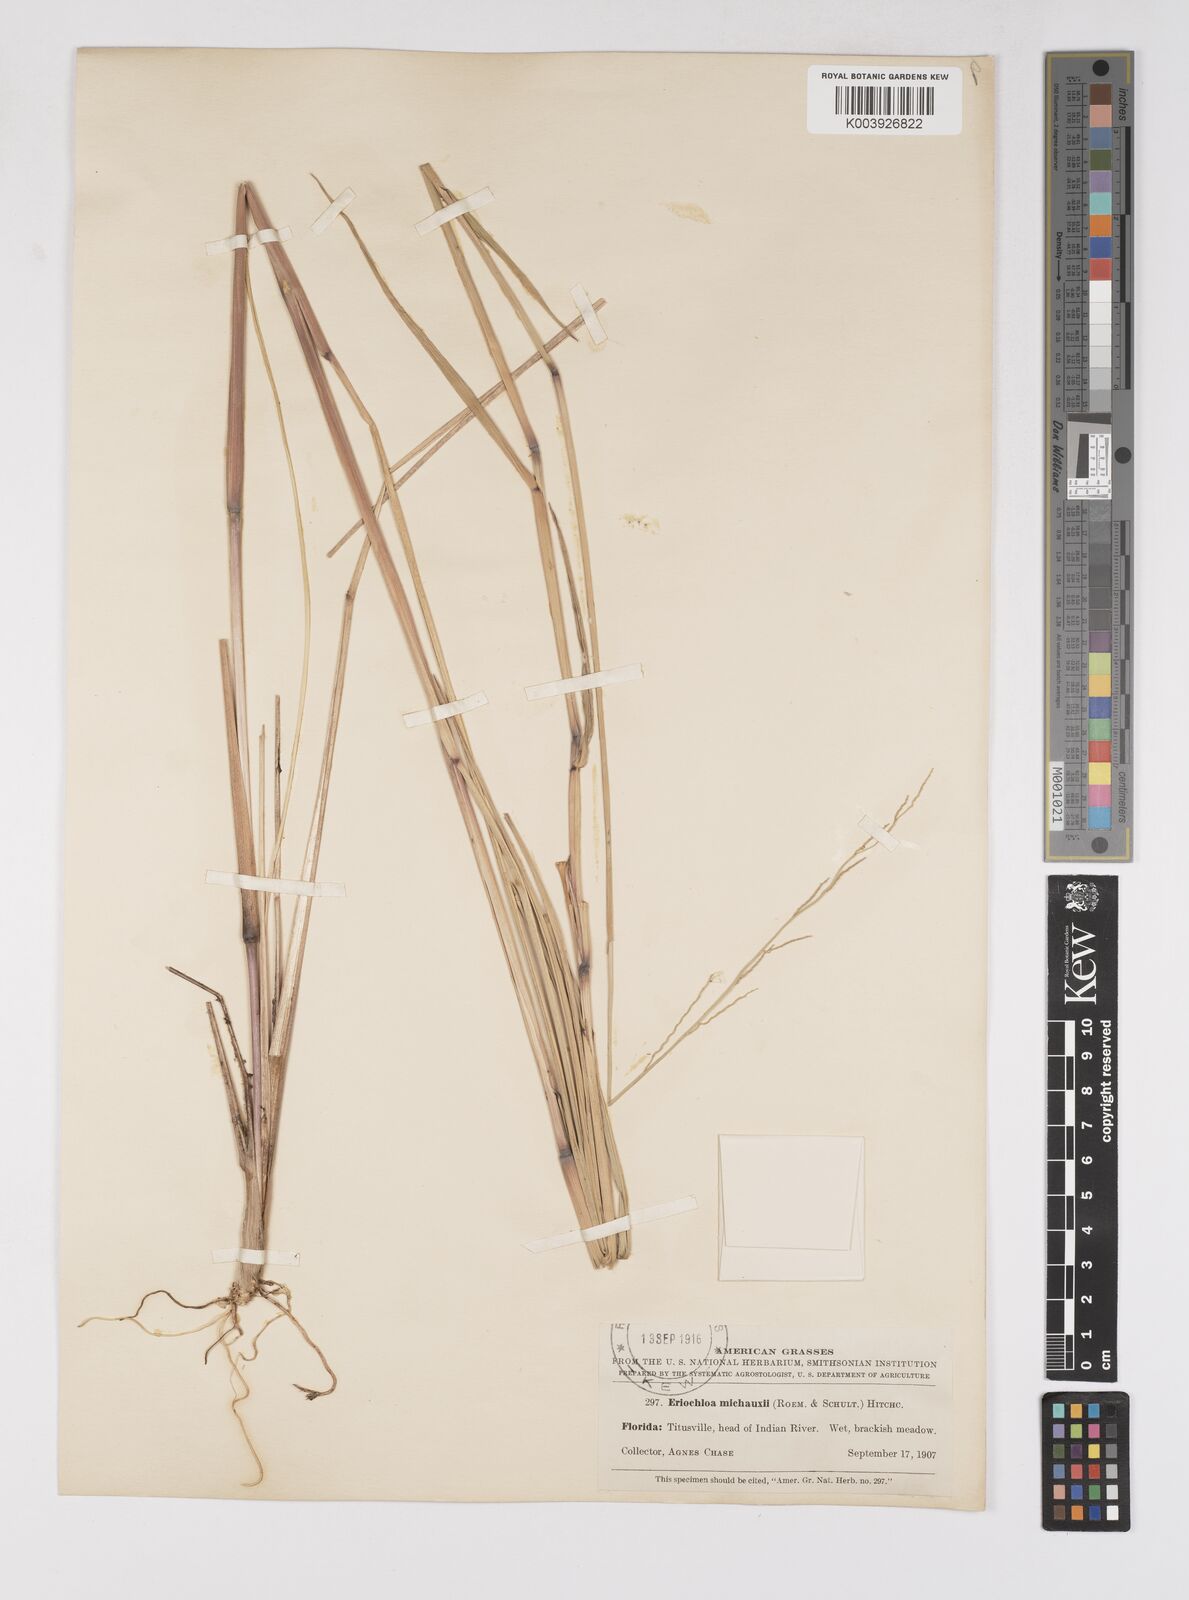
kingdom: Plantae
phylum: Tracheophyta
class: Liliopsida
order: Poales
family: Poaceae
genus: Eriochloa
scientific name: Eriochloa michauxii
